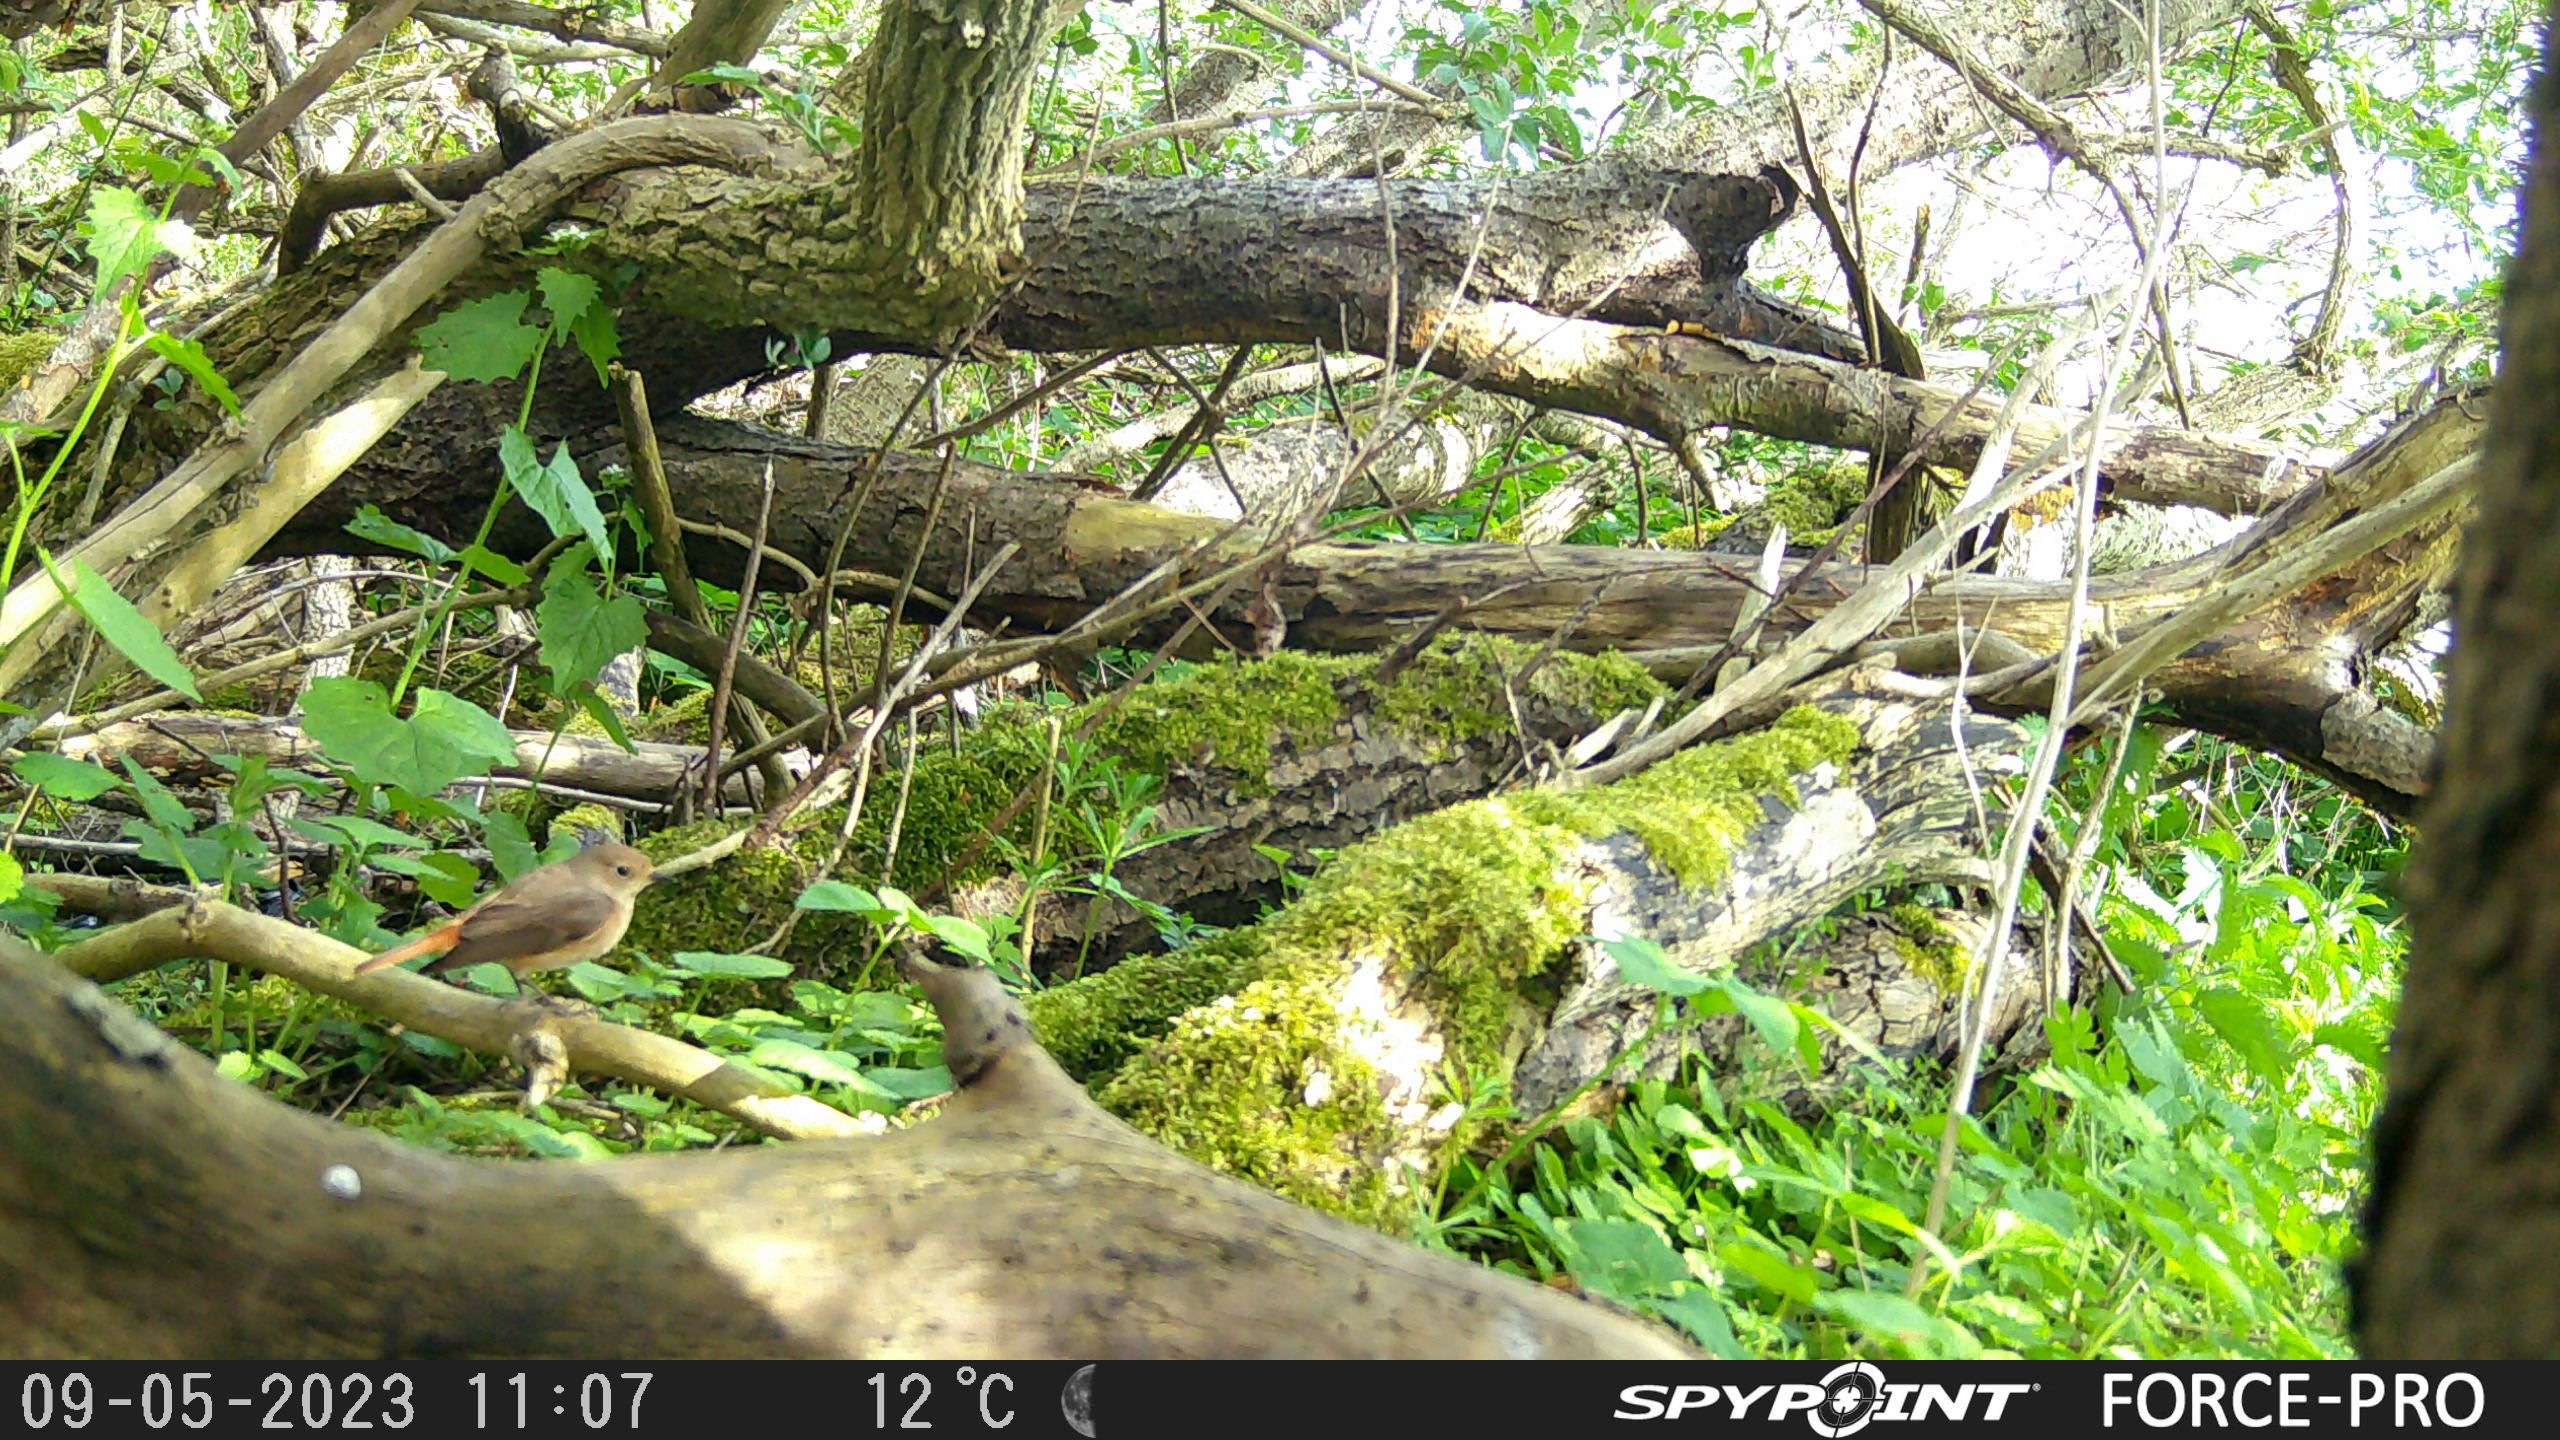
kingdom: Animalia
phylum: Chordata
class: Aves
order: Passeriformes
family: Muscicapidae
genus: Phoenicurus
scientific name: Phoenicurus phoenicurus
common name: Rødstjert
